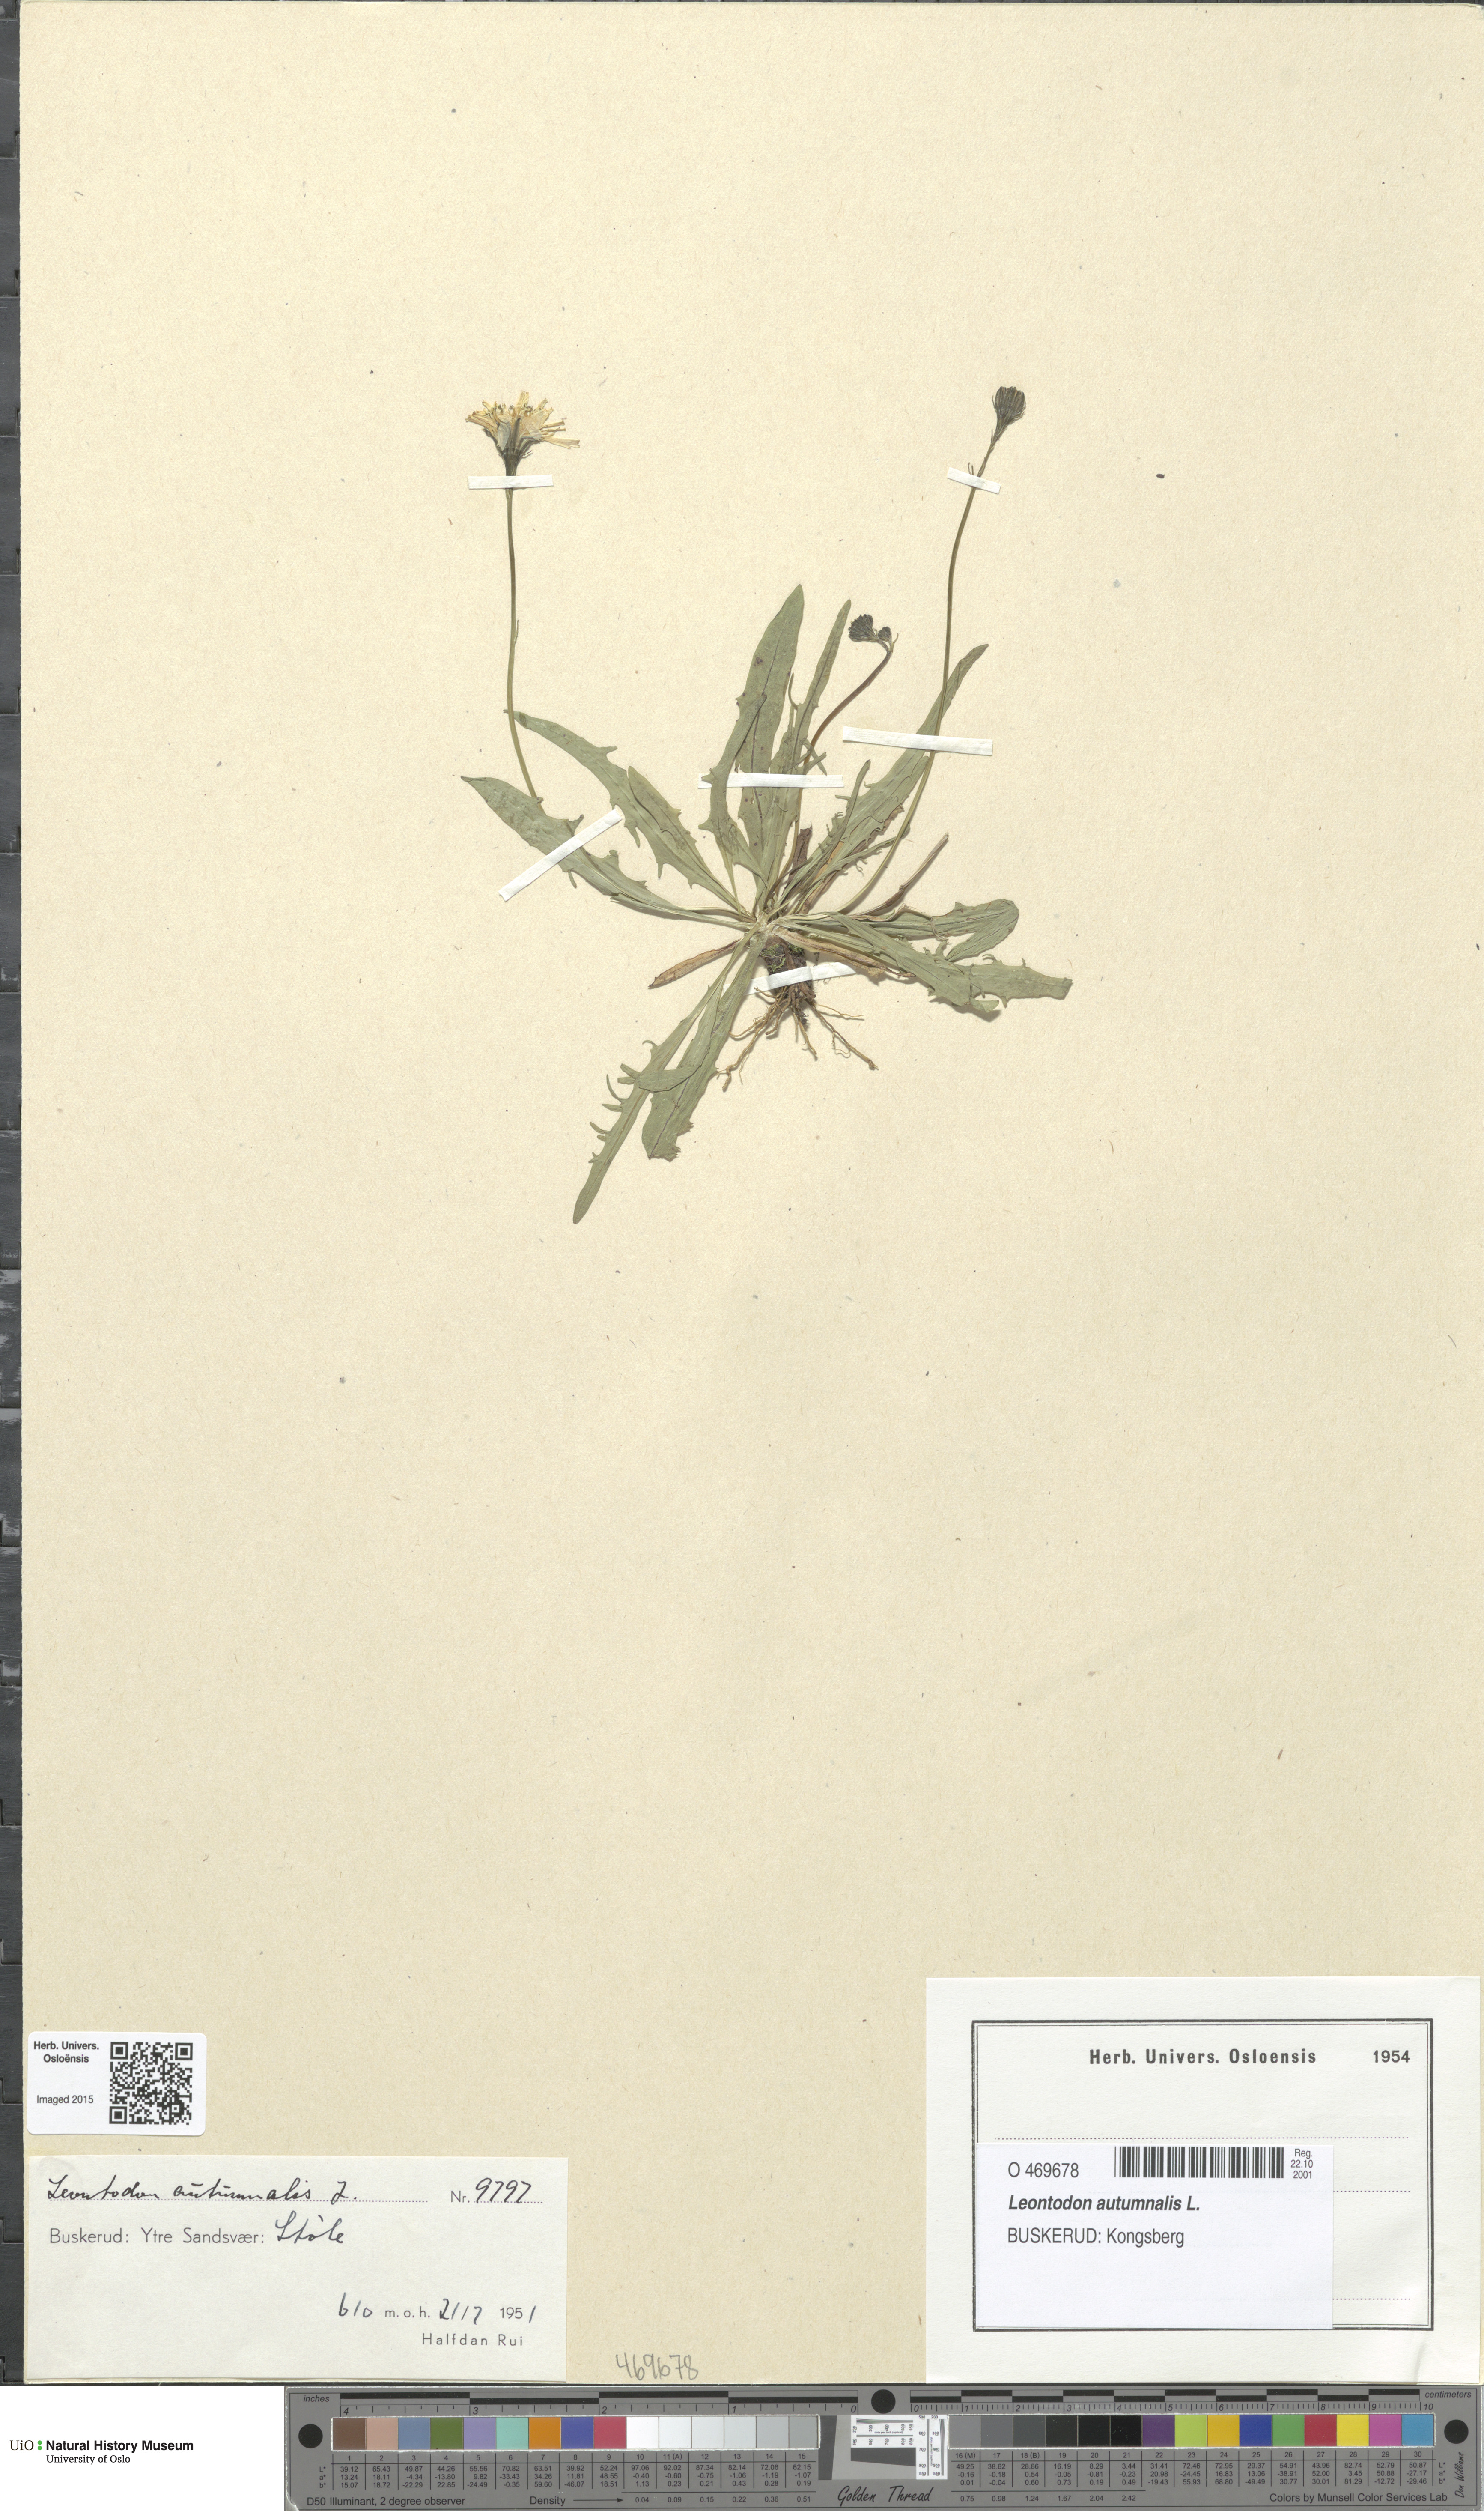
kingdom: Plantae
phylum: Tracheophyta
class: Magnoliopsida
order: Asterales
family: Asteraceae
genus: Scorzoneroides
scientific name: Scorzoneroides autumnalis
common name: Autumn hawkbit
